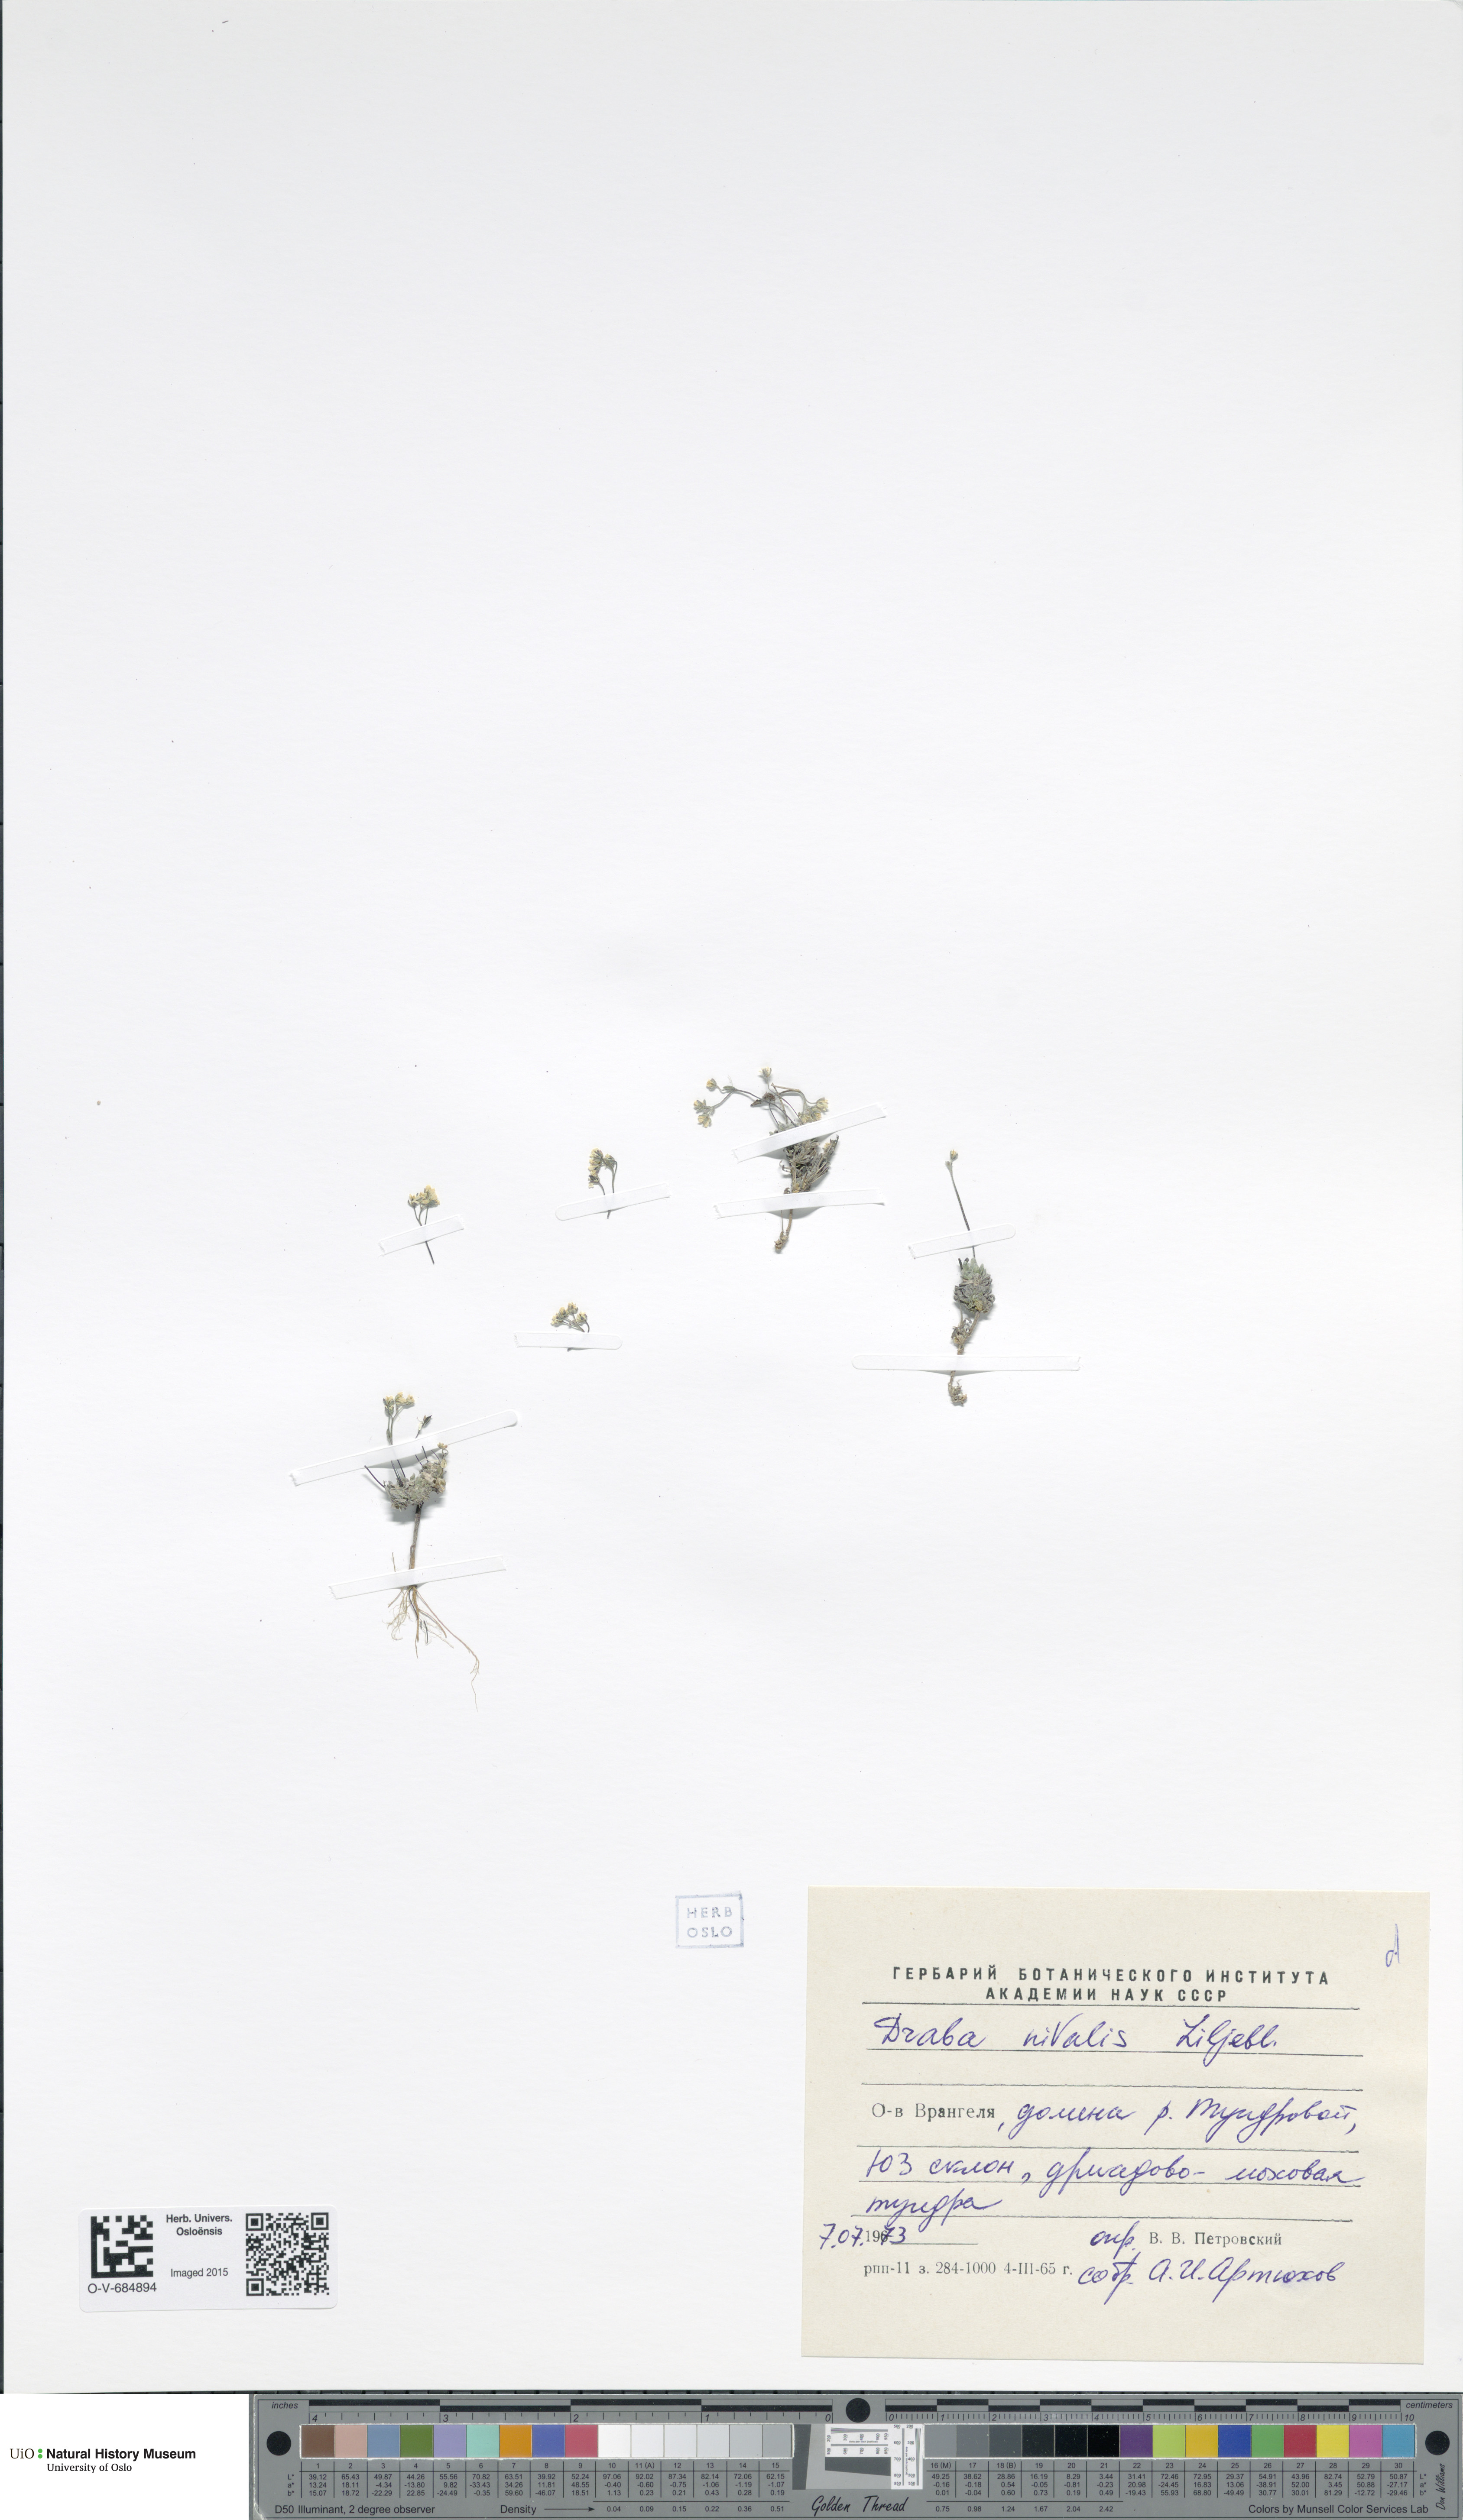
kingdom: Plantae
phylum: Tracheophyta
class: Magnoliopsida
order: Brassicales
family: Brassicaceae
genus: Draba
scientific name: Draba nivalis
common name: Snow draba
